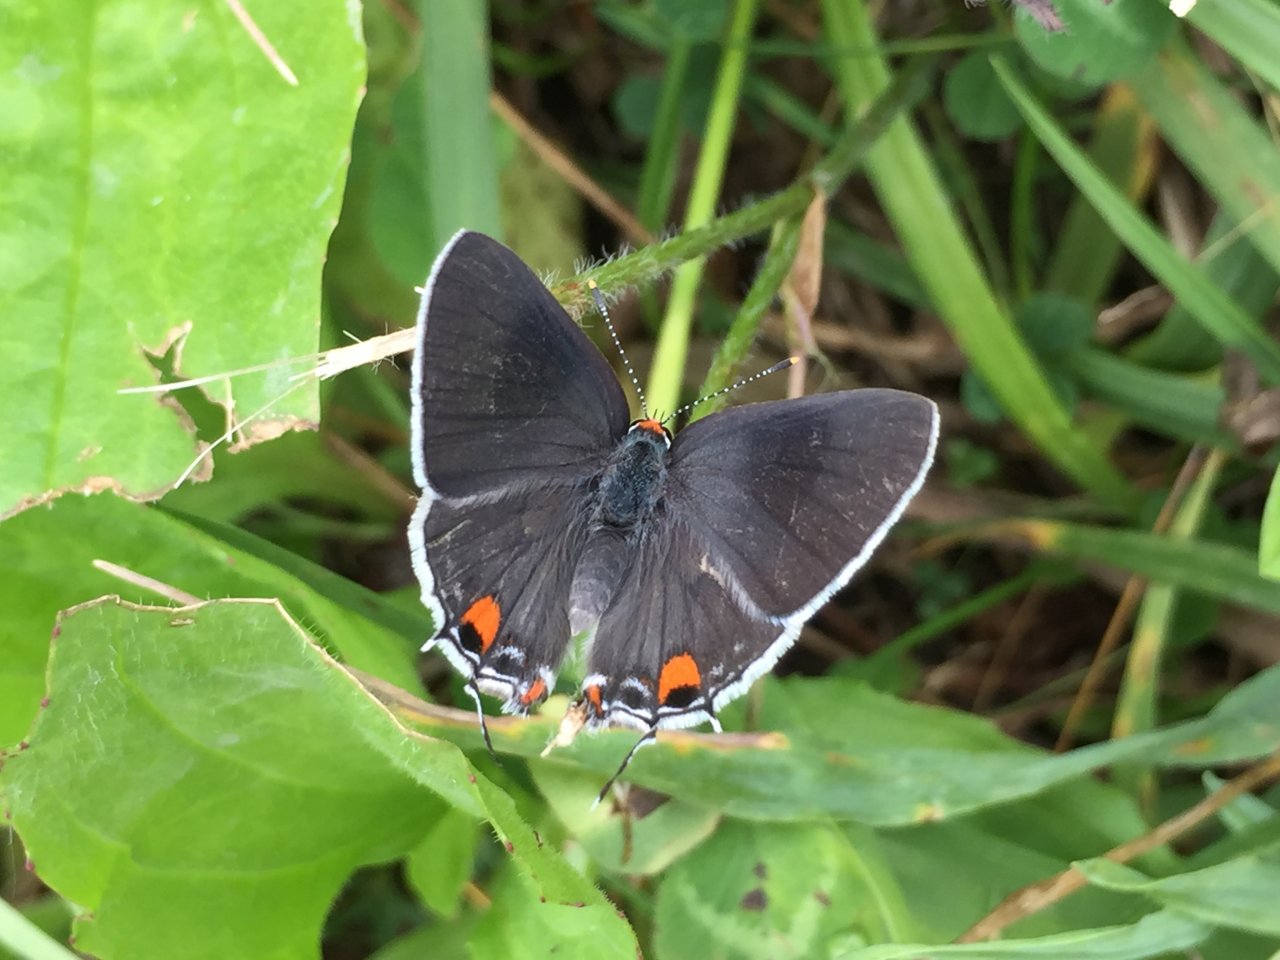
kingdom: Animalia
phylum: Arthropoda
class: Insecta
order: Lepidoptera
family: Lycaenidae
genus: Strymon
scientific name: Strymon melinus
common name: Gray Hairstreak
